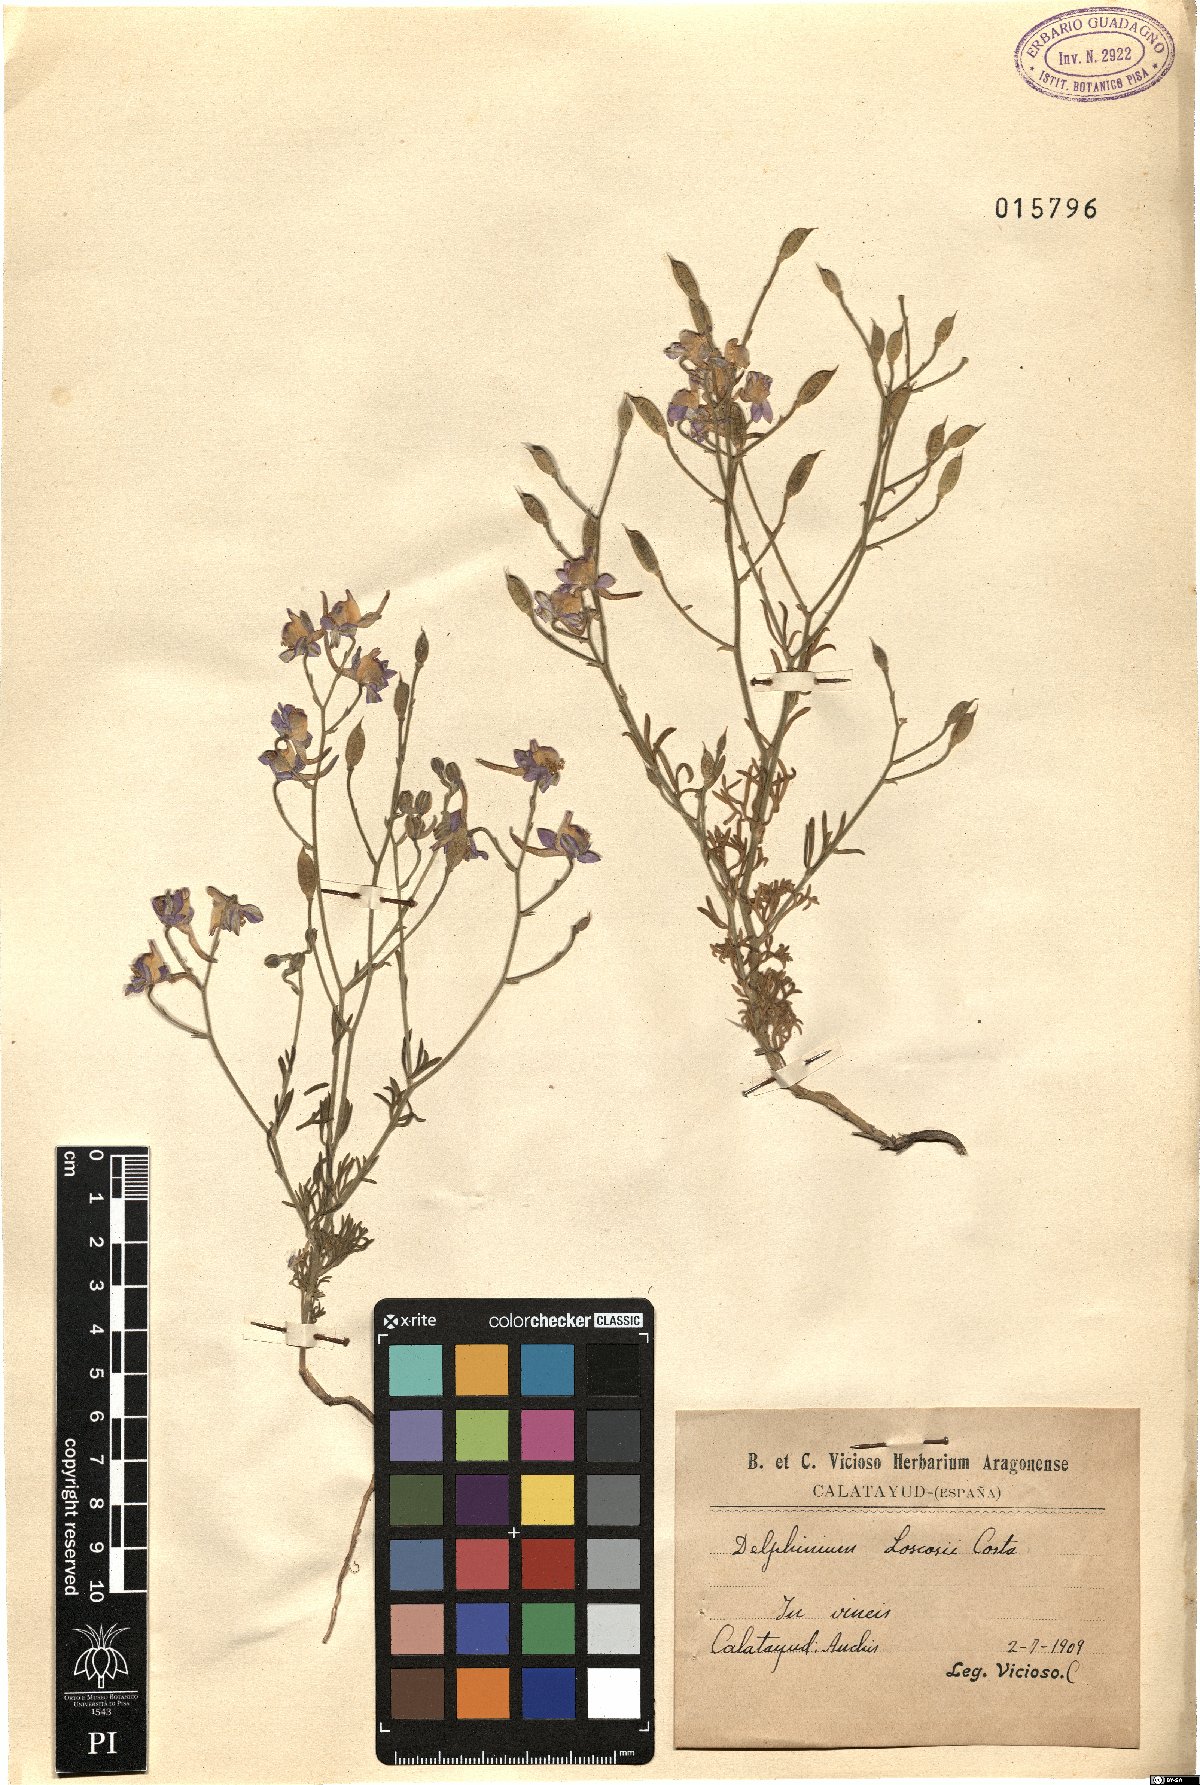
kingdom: Plantae
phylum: Tracheophyta
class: Magnoliopsida
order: Ranunculales
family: Ranunculaceae
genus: Delphinium
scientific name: Delphinium pubescens
